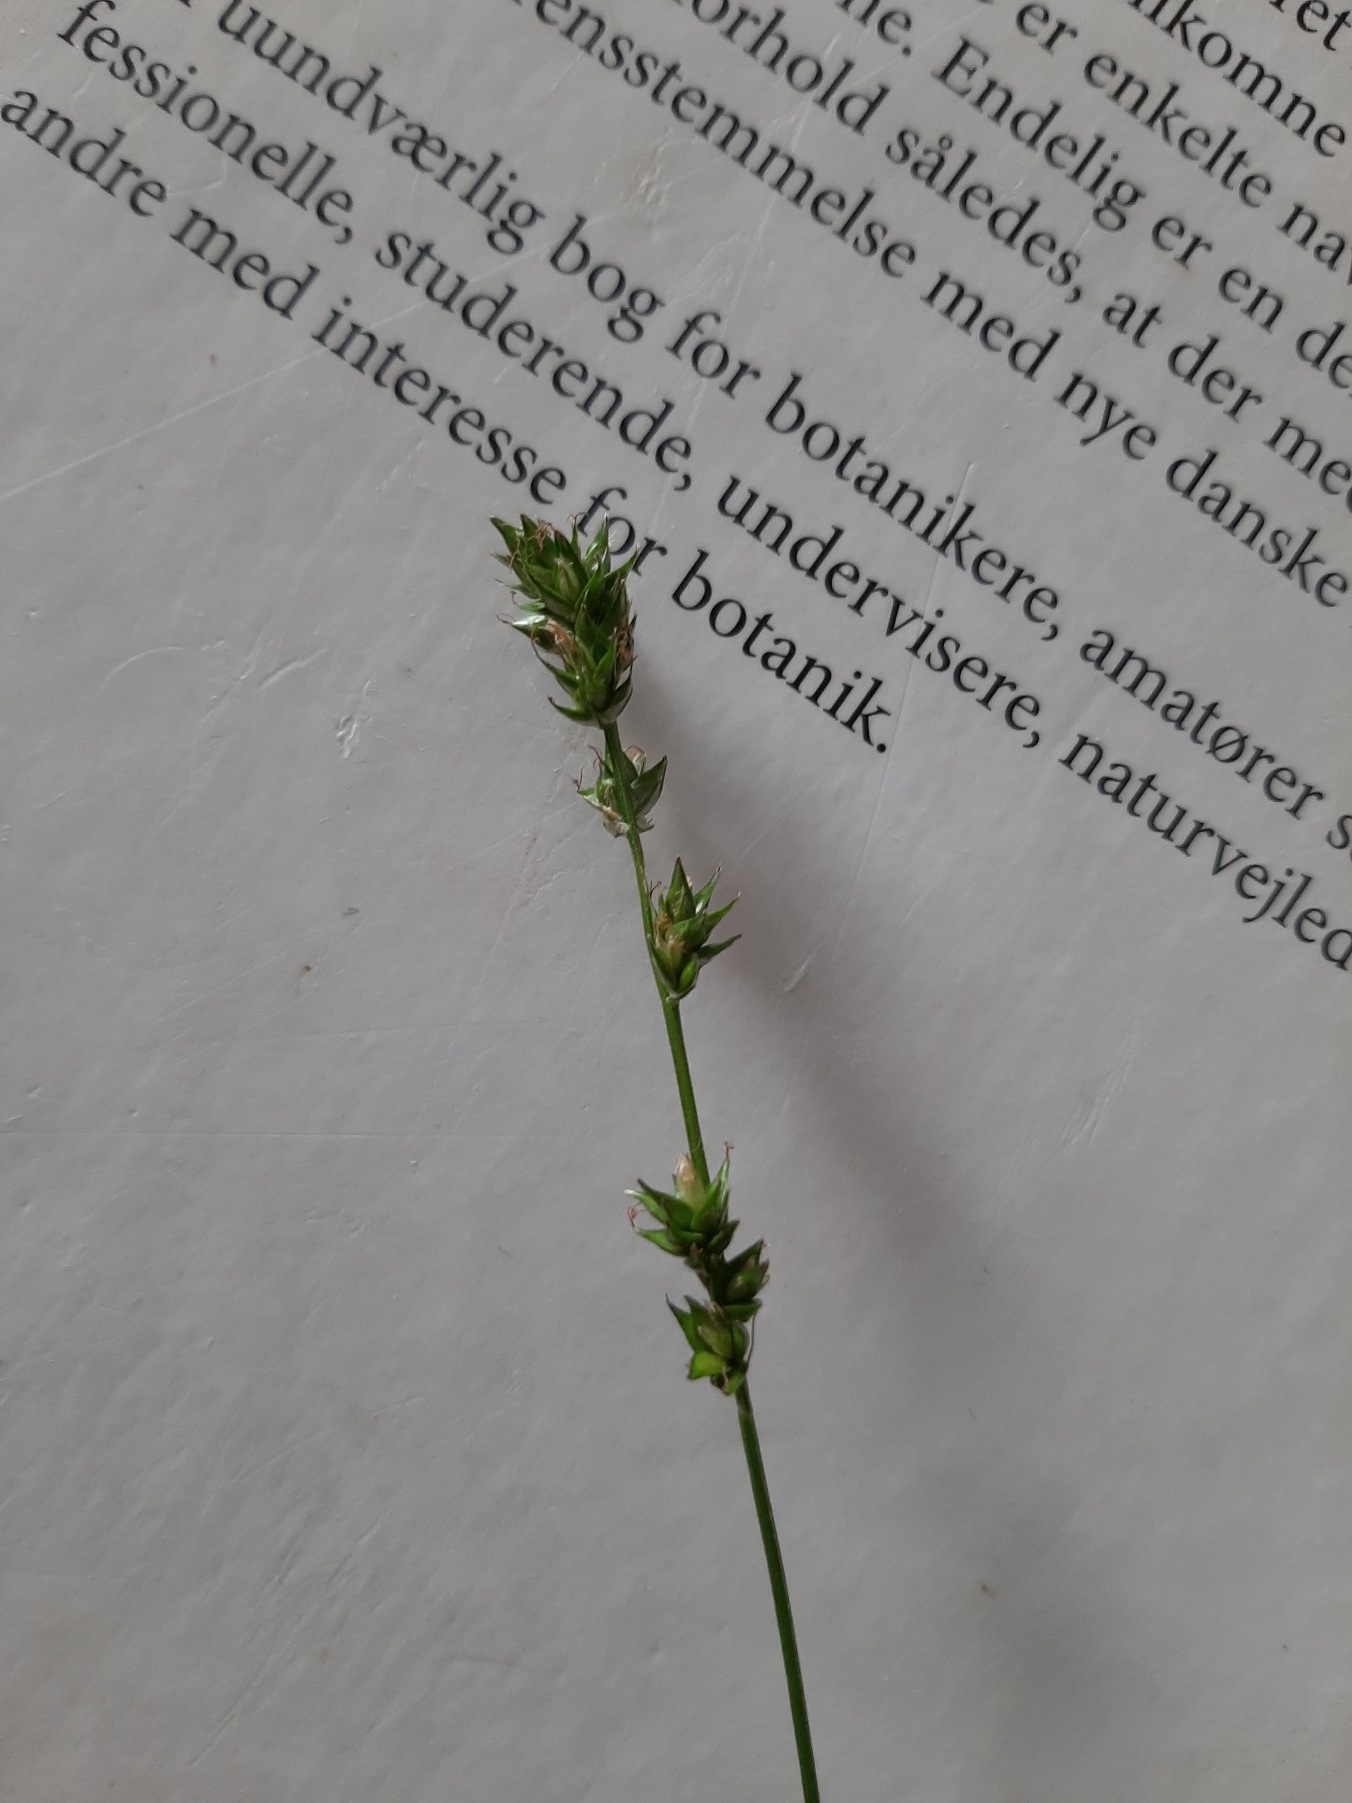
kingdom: Plantae
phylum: Tracheophyta
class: Liliopsida
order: Poales
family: Cyperaceae
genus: Carex
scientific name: Carex leersii
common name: Mellembrudt star (underart)
